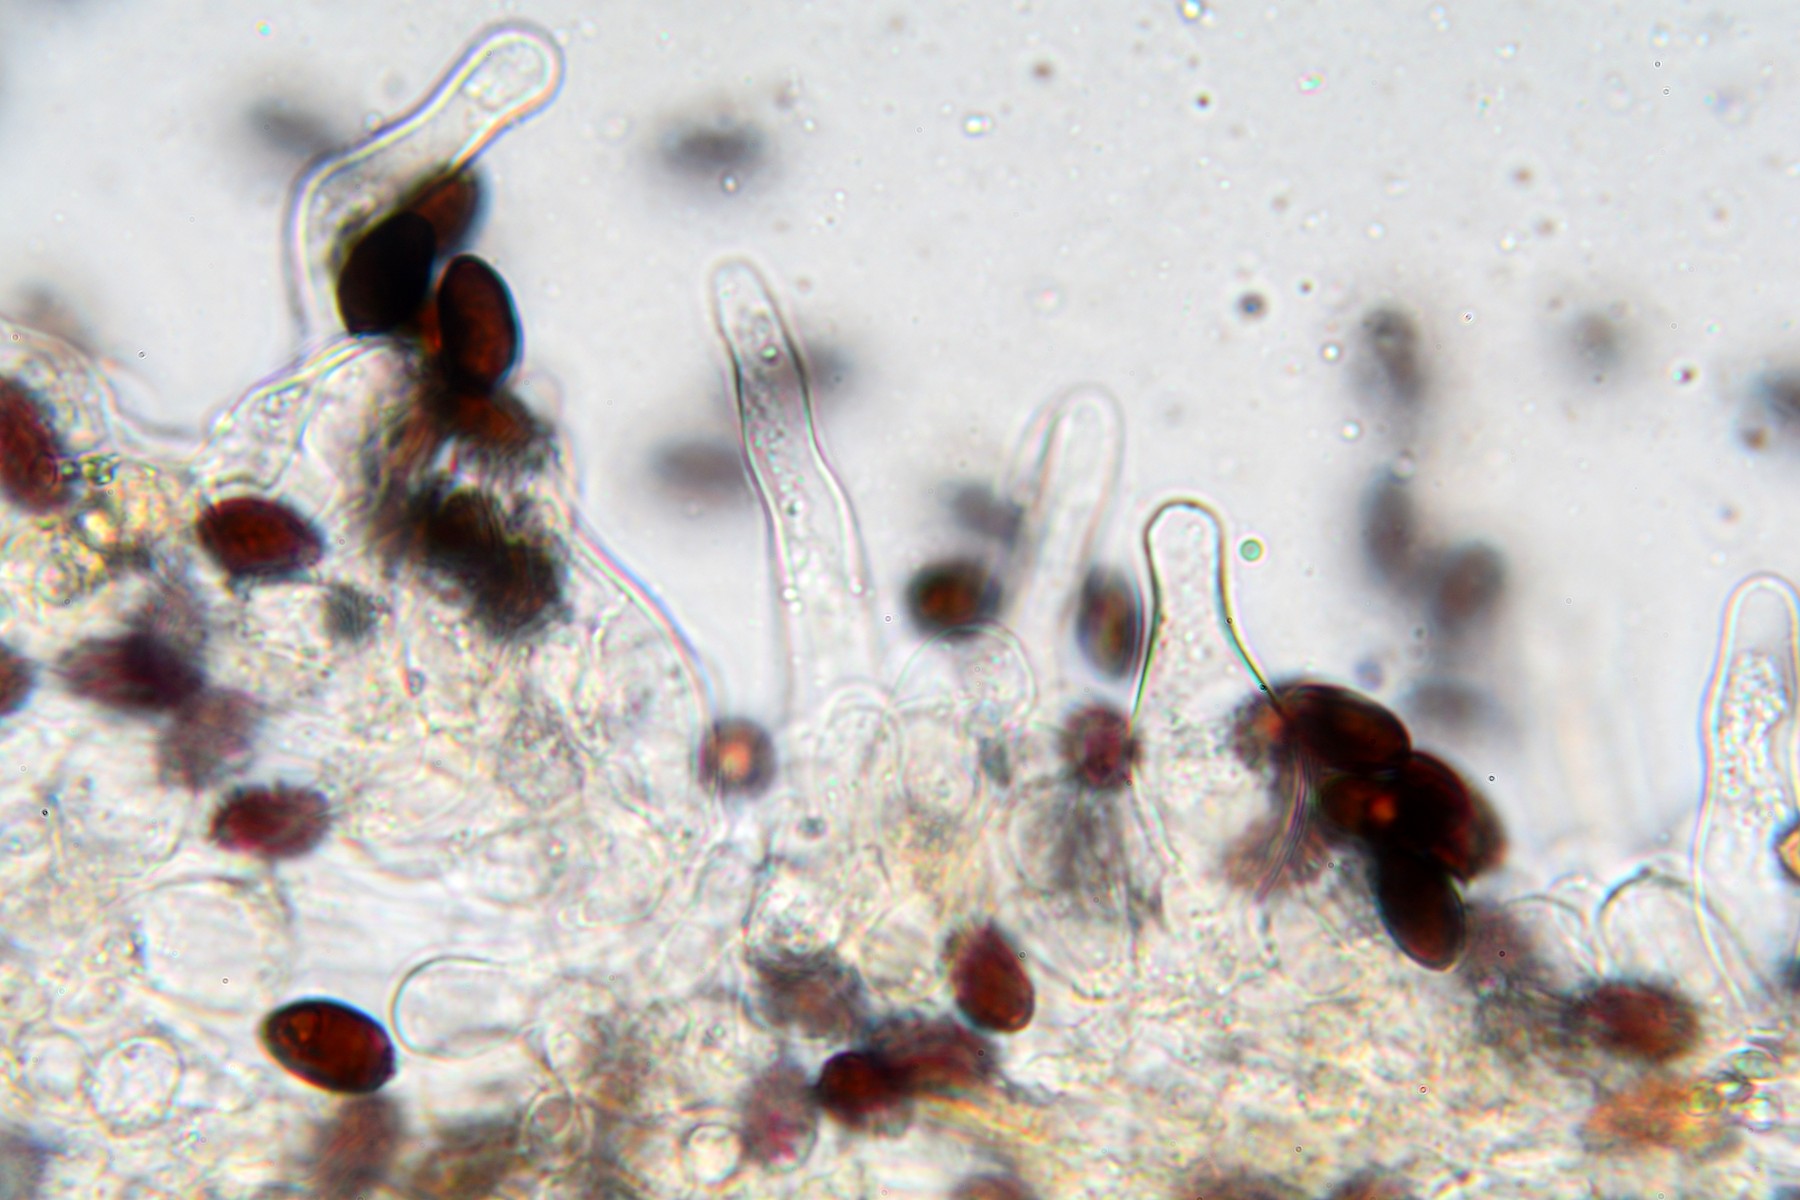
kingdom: Fungi
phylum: Basidiomycota
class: Agaricomycetes
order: Agaricales
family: Psathyrellaceae
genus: Parasola
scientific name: Parasola conopilea
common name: kegle-hjulhat
